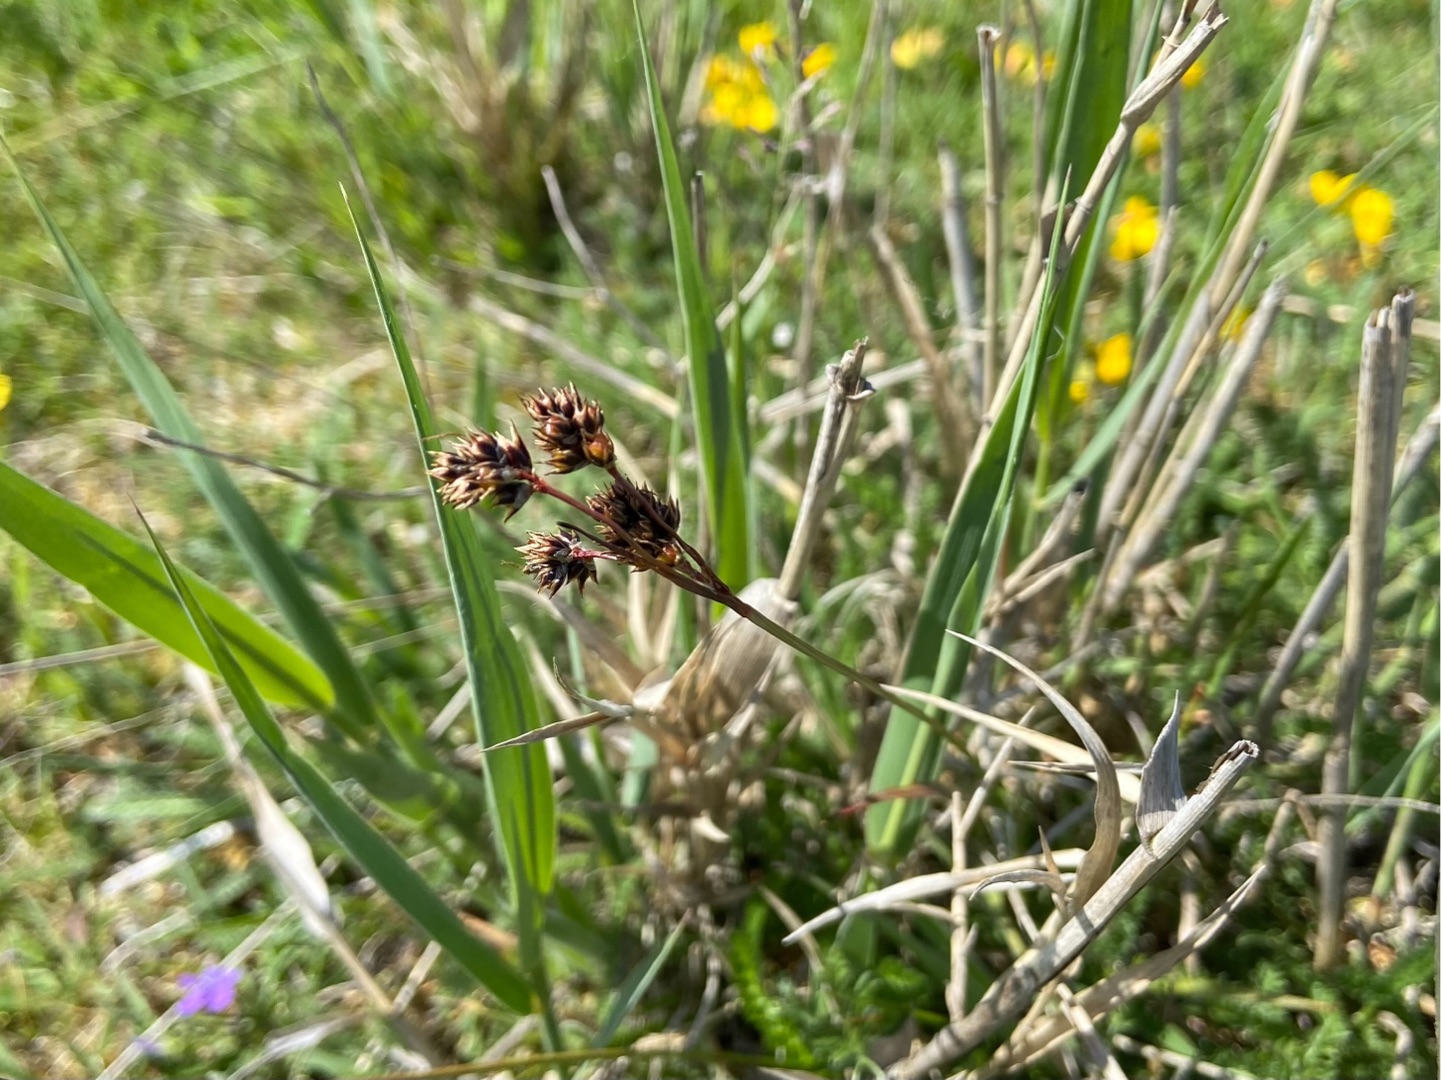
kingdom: Plantae
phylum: Tracheophyta
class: Liliopsida
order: Poales
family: Juncaceae
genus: Luzula
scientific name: Luzula campestris
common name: Mark-frytle
